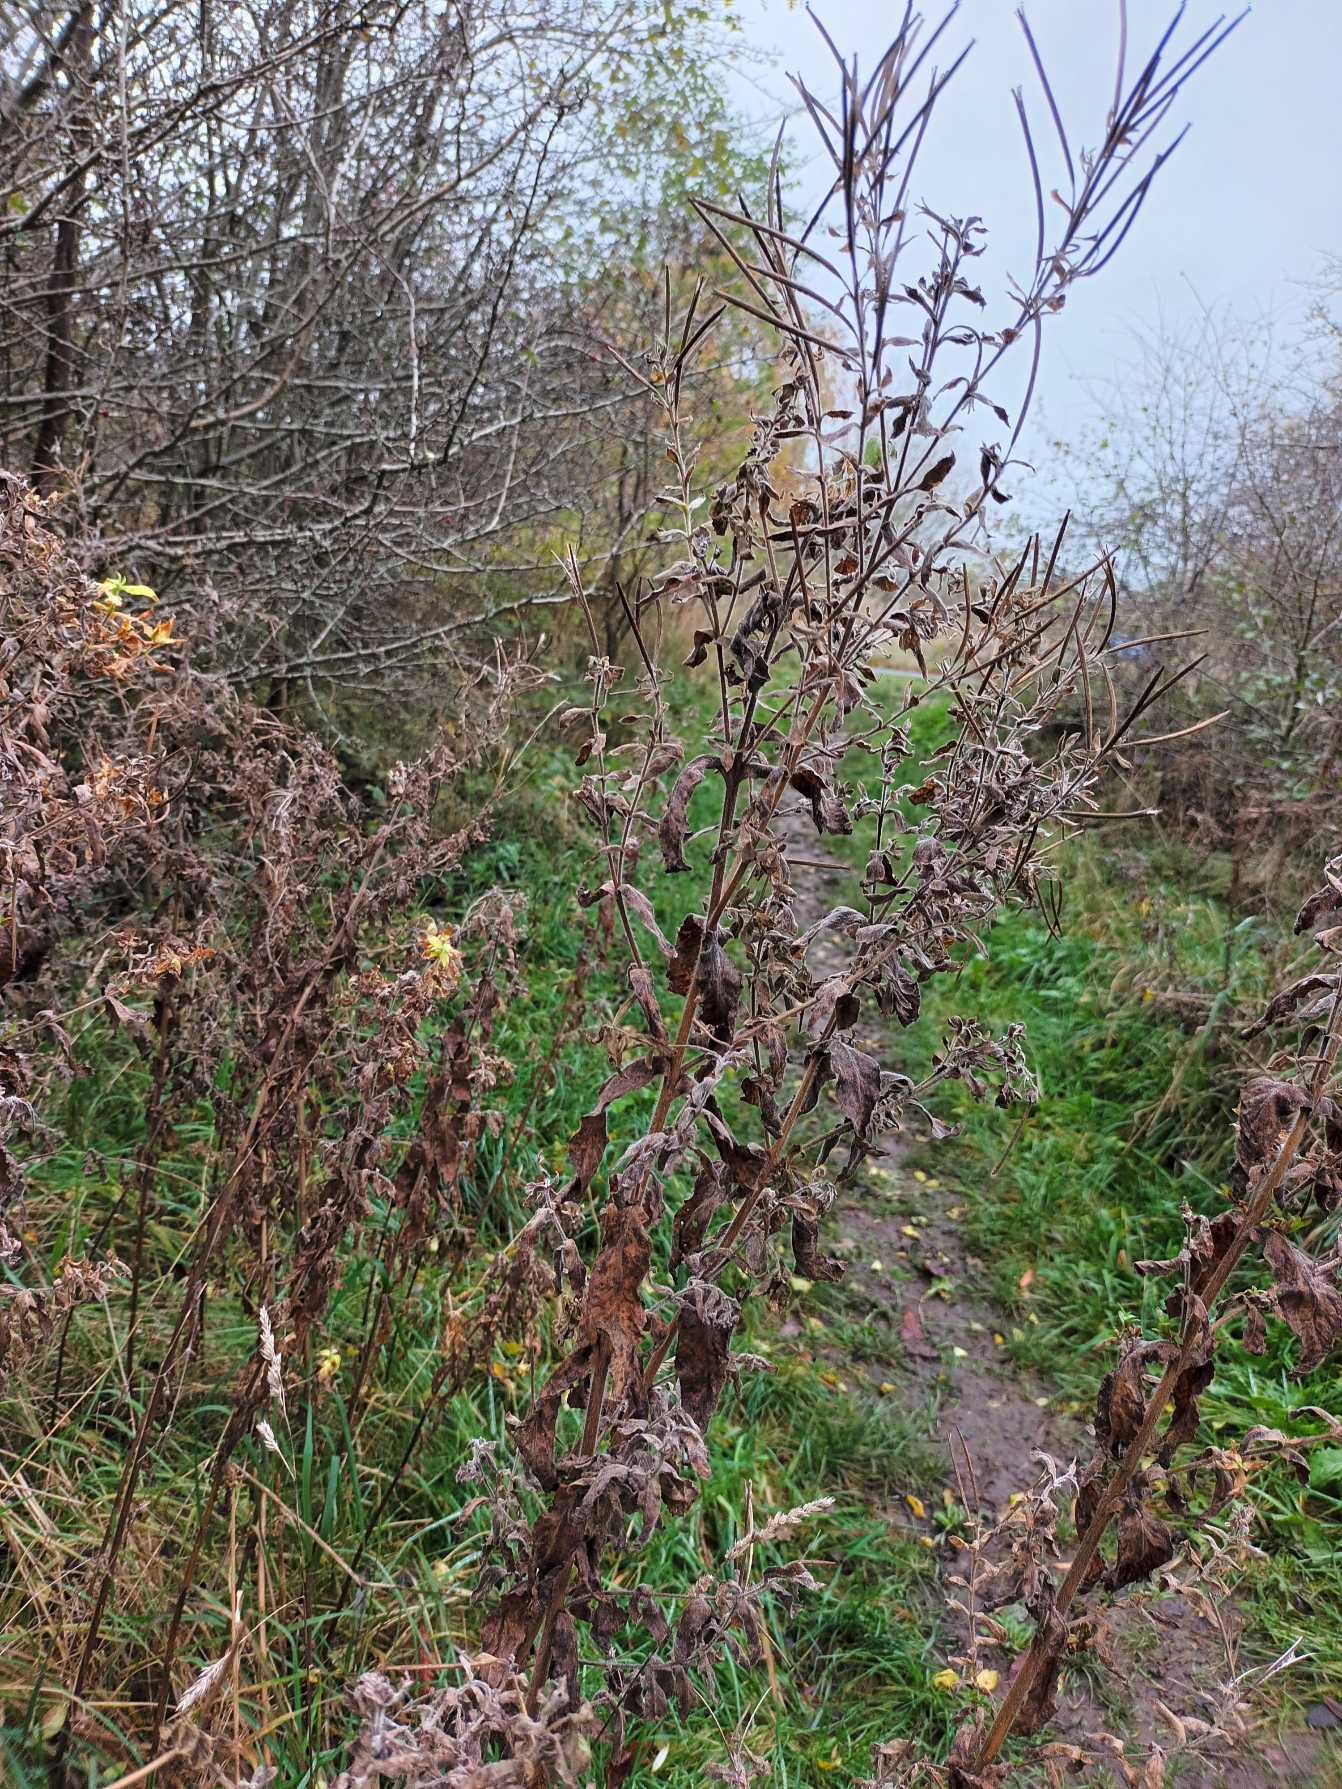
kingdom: Plantae
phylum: Tracheophyta
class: Magnoliopsida
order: Myrtales
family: Onagraceae
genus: Epilobium
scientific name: Epilobium hirsutum
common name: Lådden dueurt
